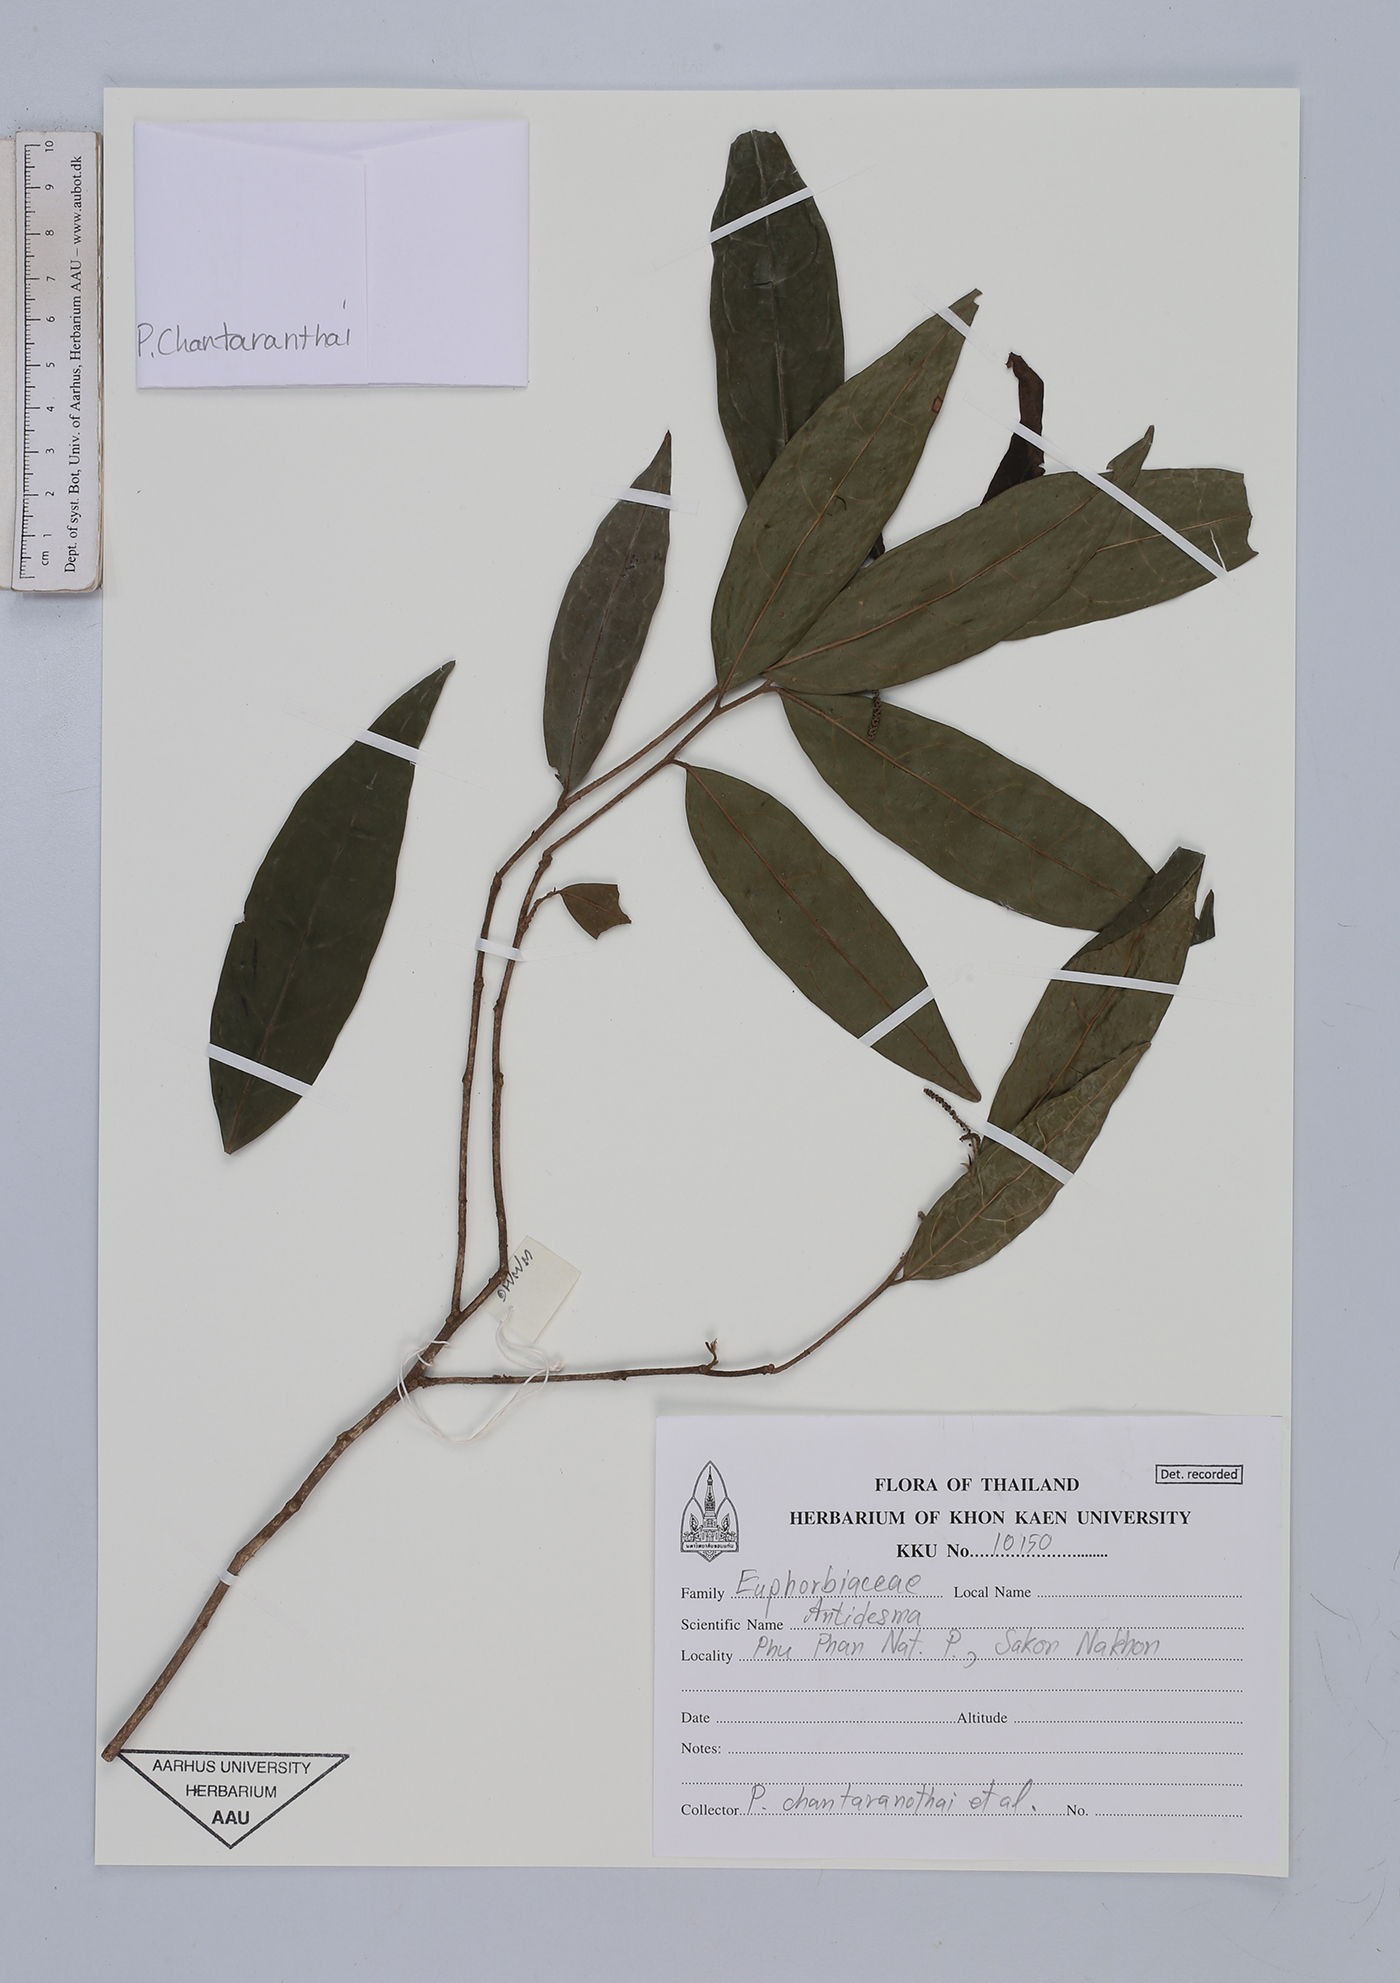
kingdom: Plantae
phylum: Tracheophyta
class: Magnoliopsida
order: Malpighiales
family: Phyllanthaceae
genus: Antidesma
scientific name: Antidesma
